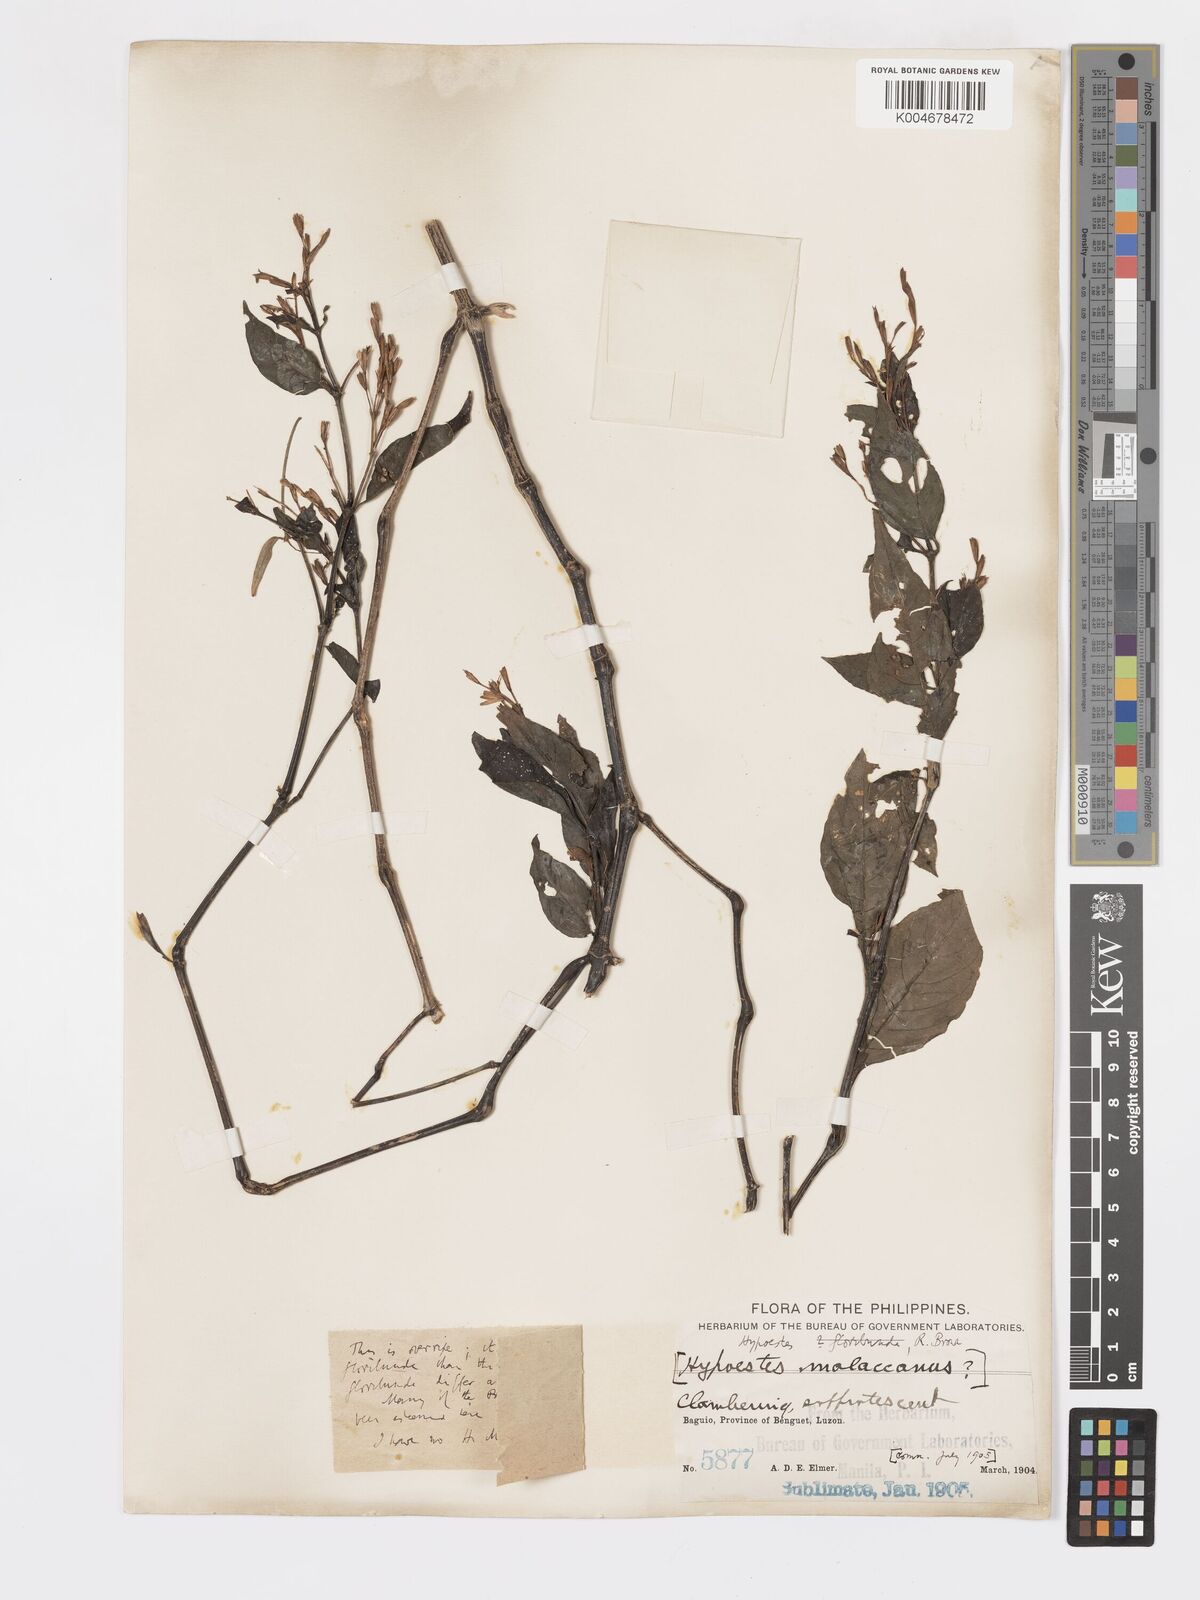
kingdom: Plantae
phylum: Tracheophyta
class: Magnoliopsida
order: Lamiales
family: Acanthaceae
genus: Hypoestes
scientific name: Hypoestes floribunda
